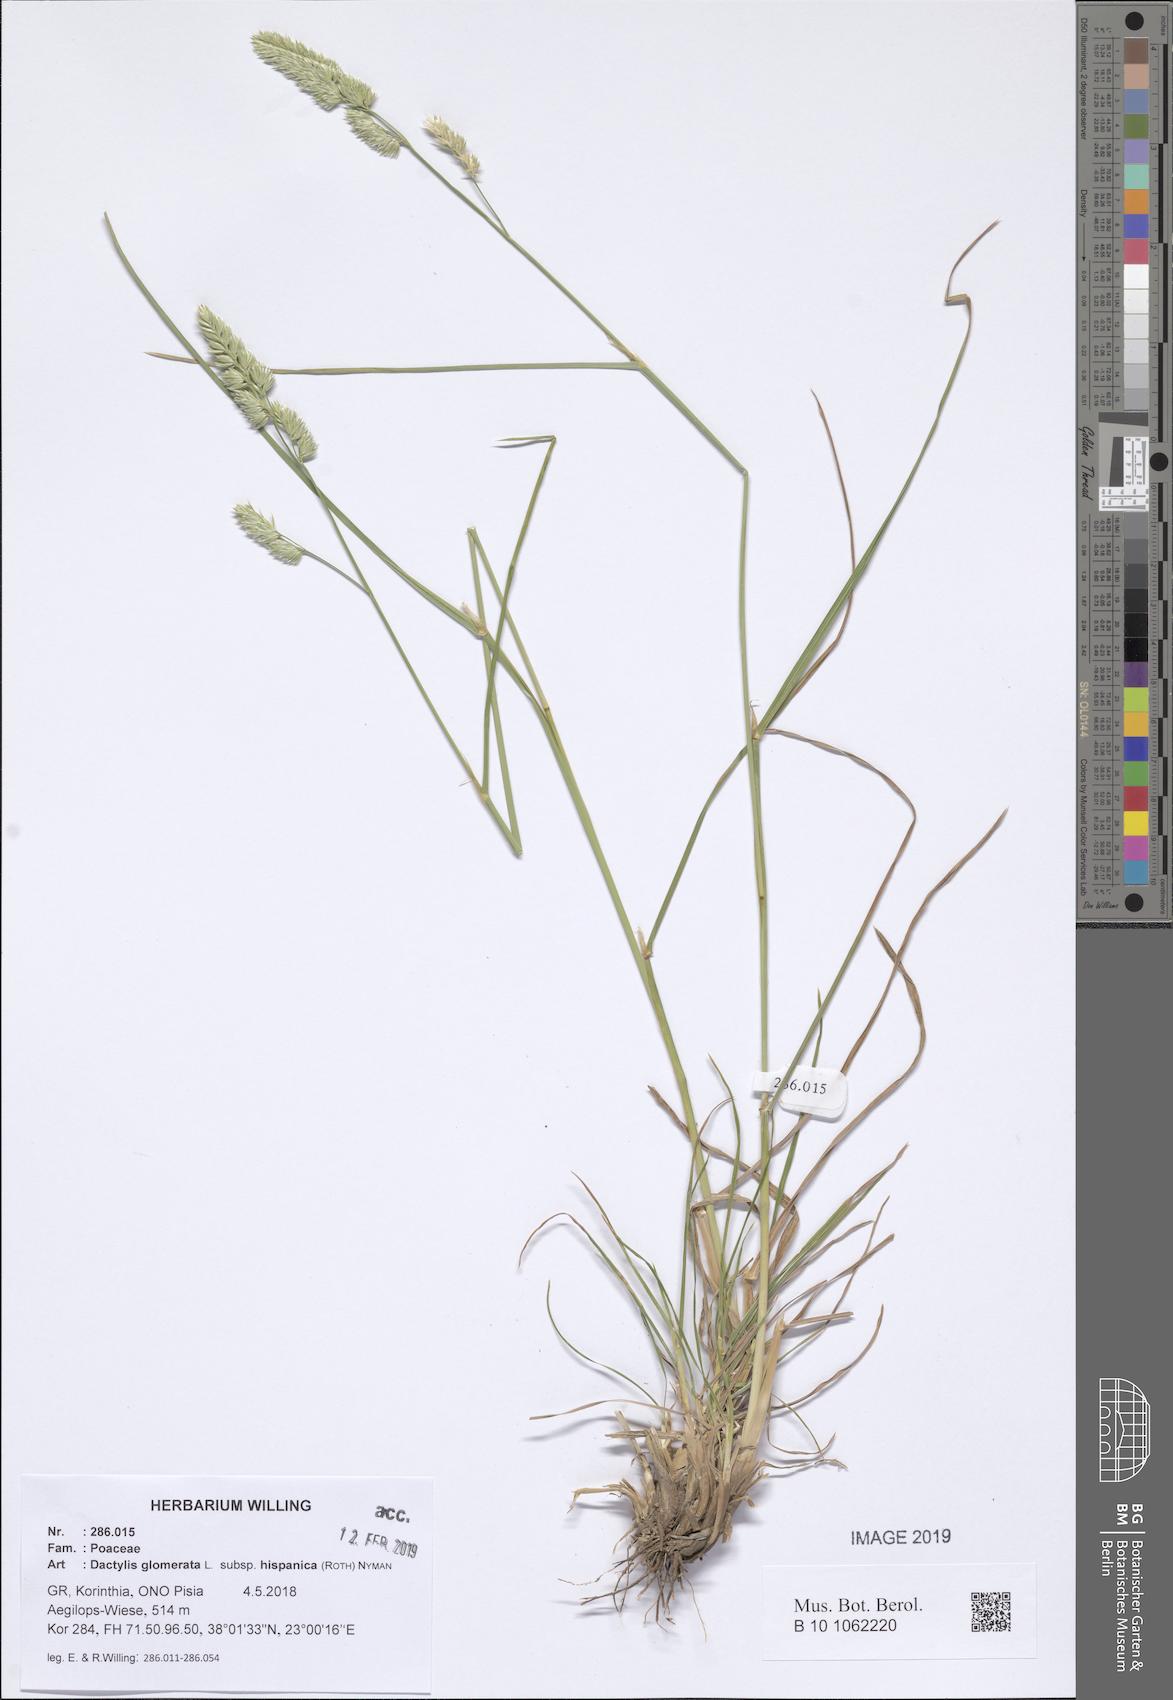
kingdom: Plantae
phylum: Tracheophyta
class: Liliopsida
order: Poales
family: Poaceae
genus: Dactylis
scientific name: Dactylis glomerata
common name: Orchardgrass
